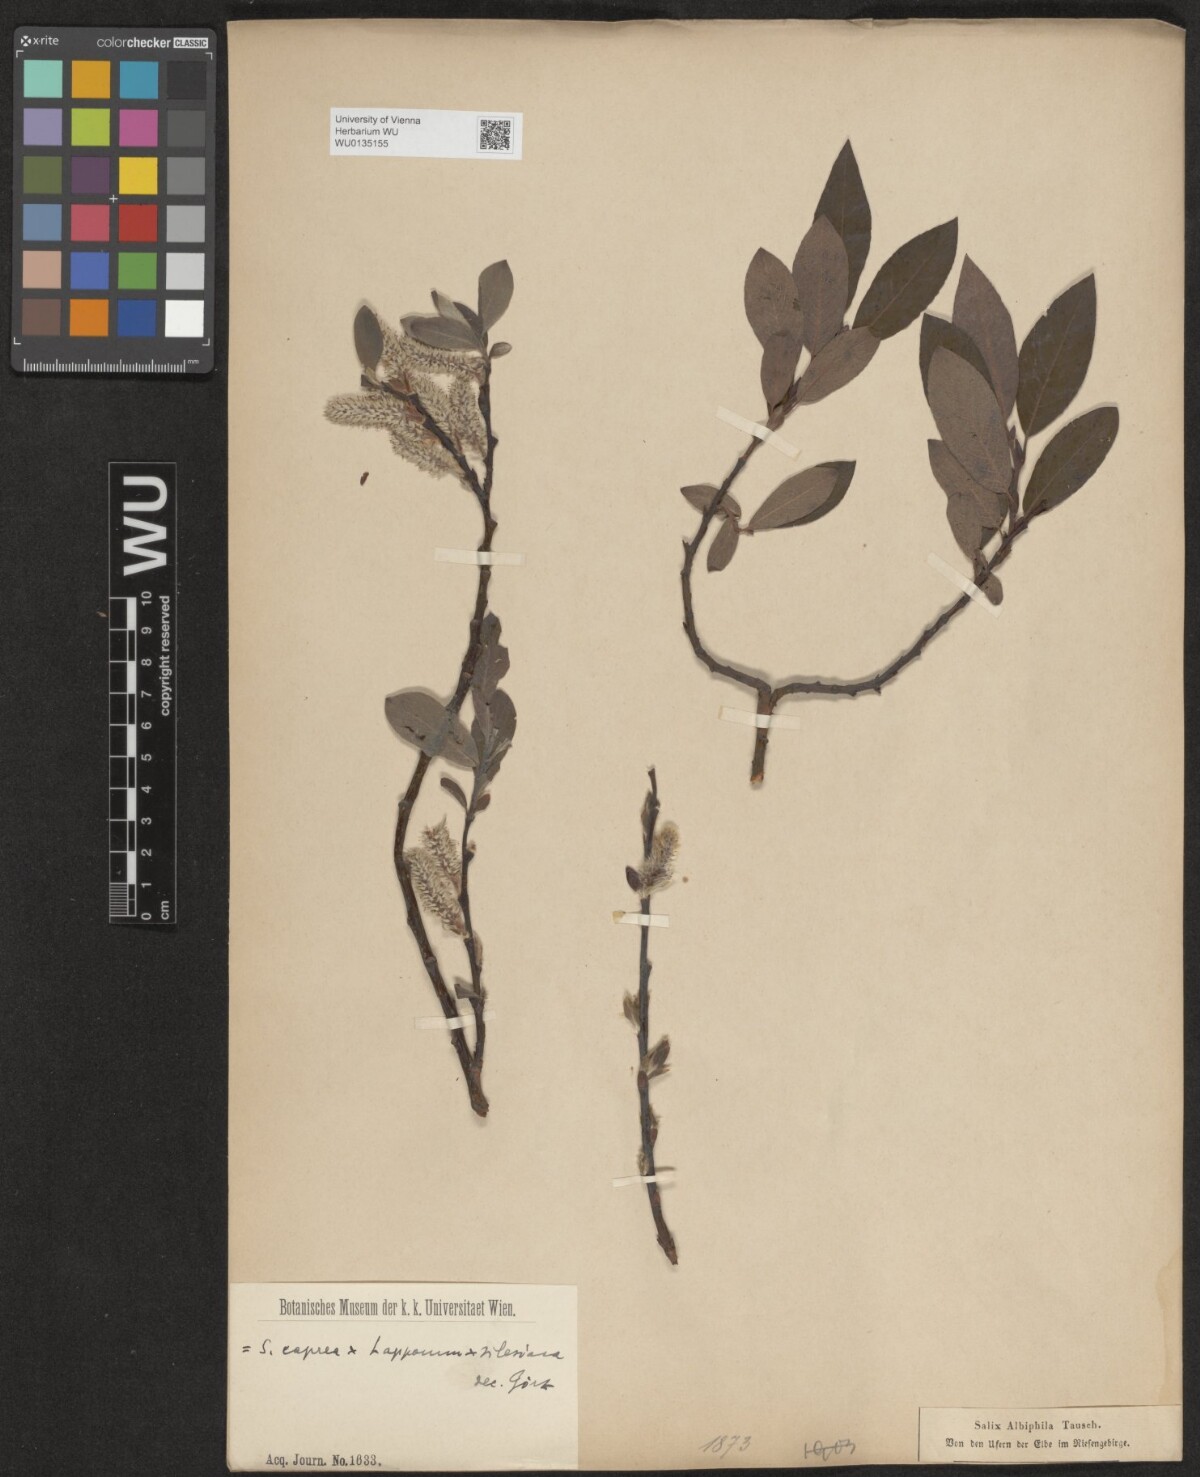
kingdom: Plantae
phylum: Tracheophyta
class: Magnoliopsida
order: Malpighiales
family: Salicaceae
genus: Salix
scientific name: Salix
